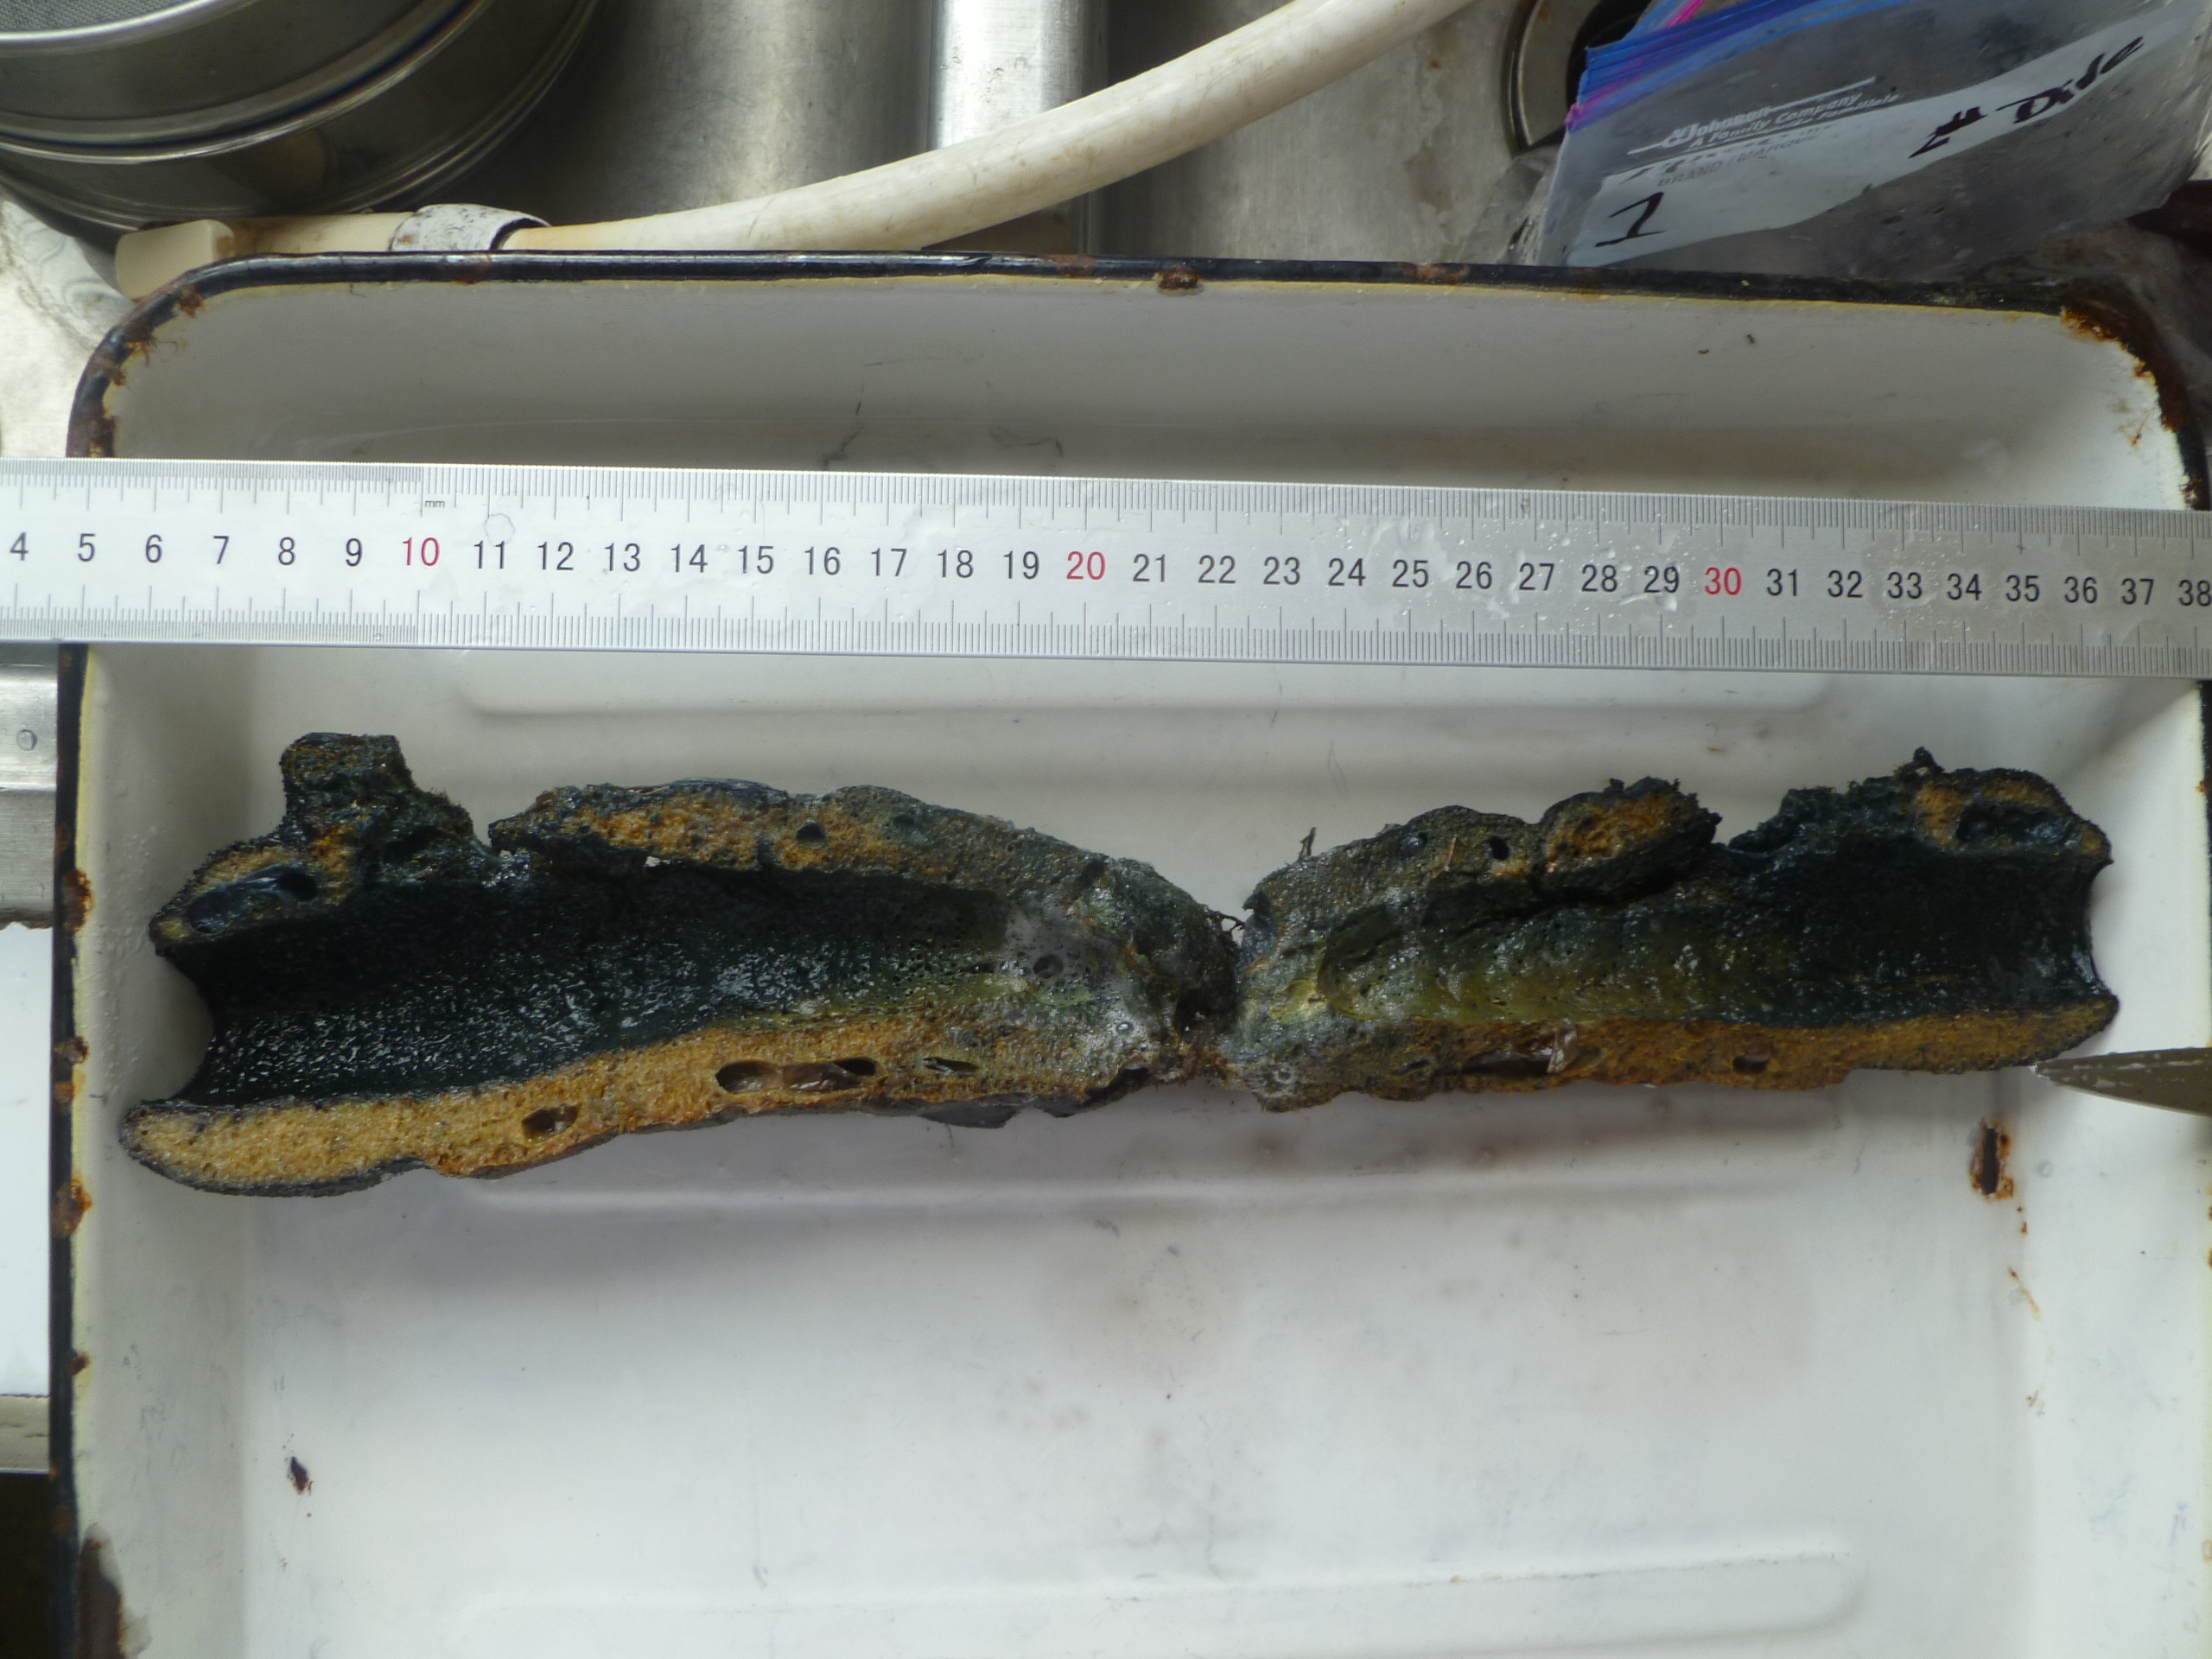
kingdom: Animalia
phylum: Porifera
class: Demospongiae
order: Haplosclerida
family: Niphatidae
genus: Niphates
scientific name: Niphates digitalis
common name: Pink vase sponge
